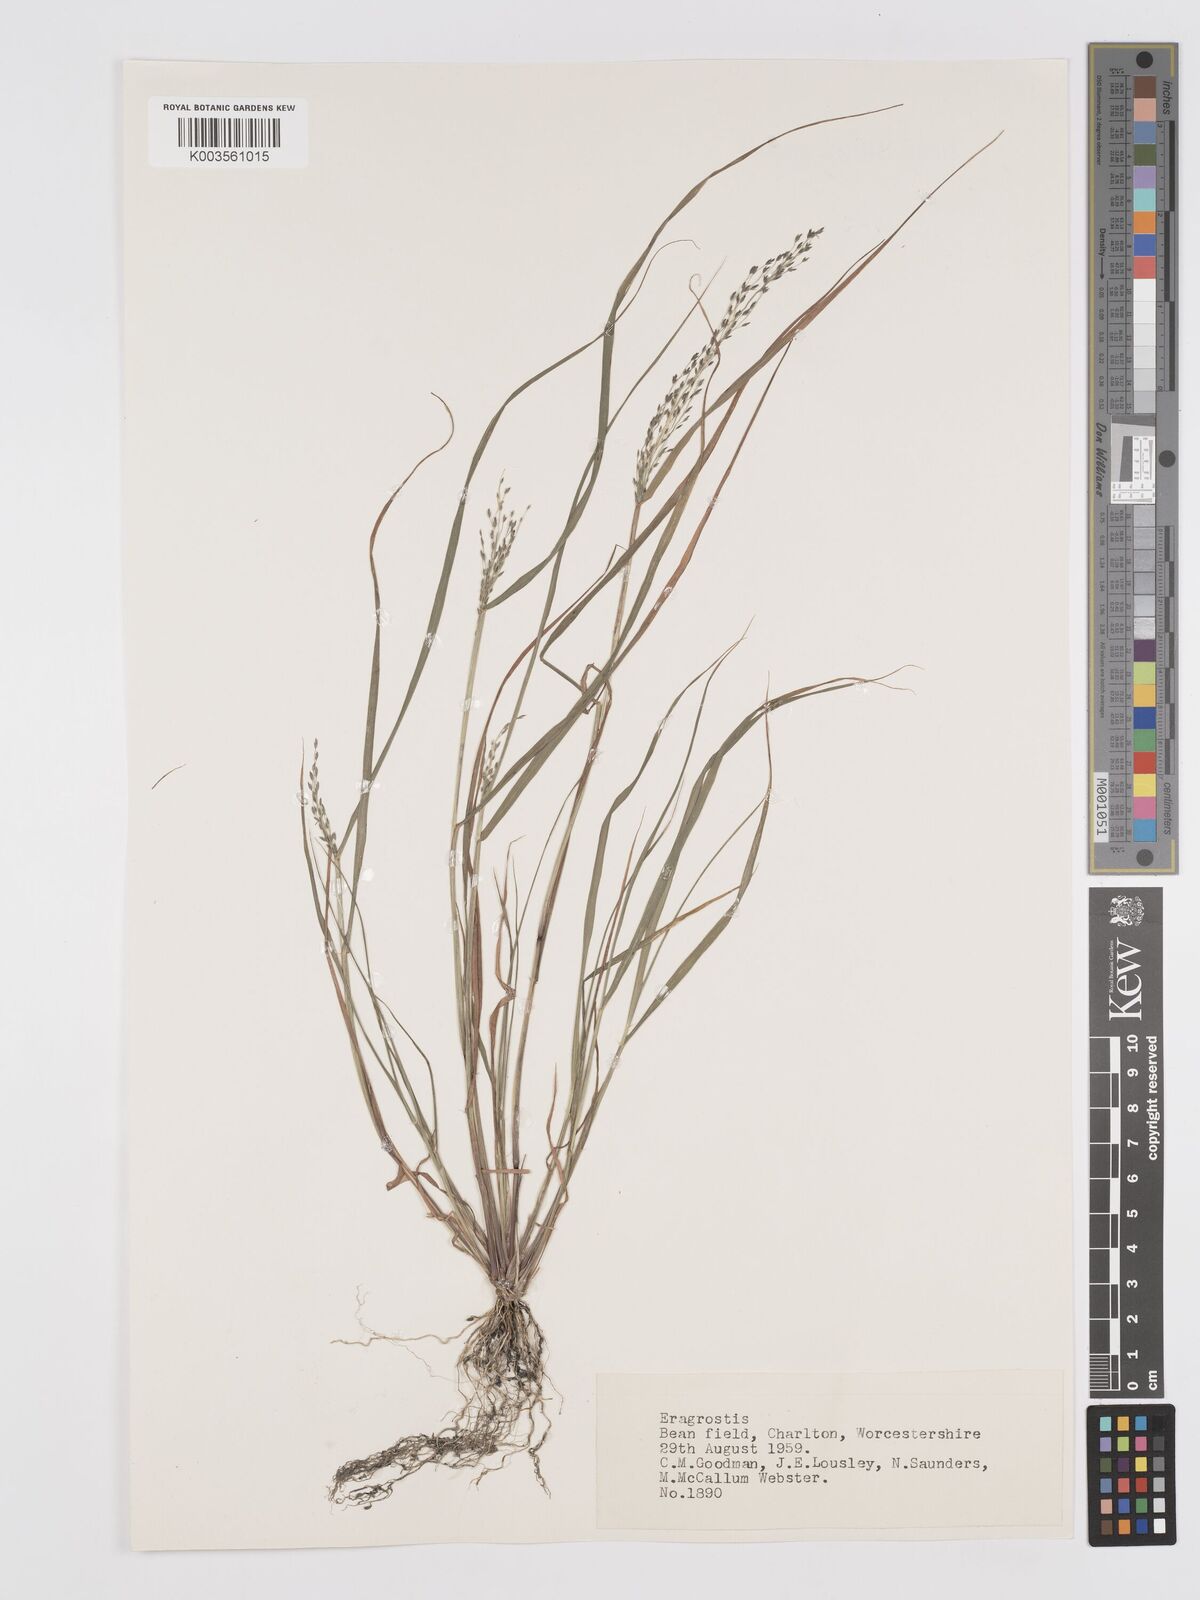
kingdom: Plantae
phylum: Tracheophyta
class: Liliopsida
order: Poales
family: Poaceae
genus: Eragrostis
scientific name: Eragrostis
